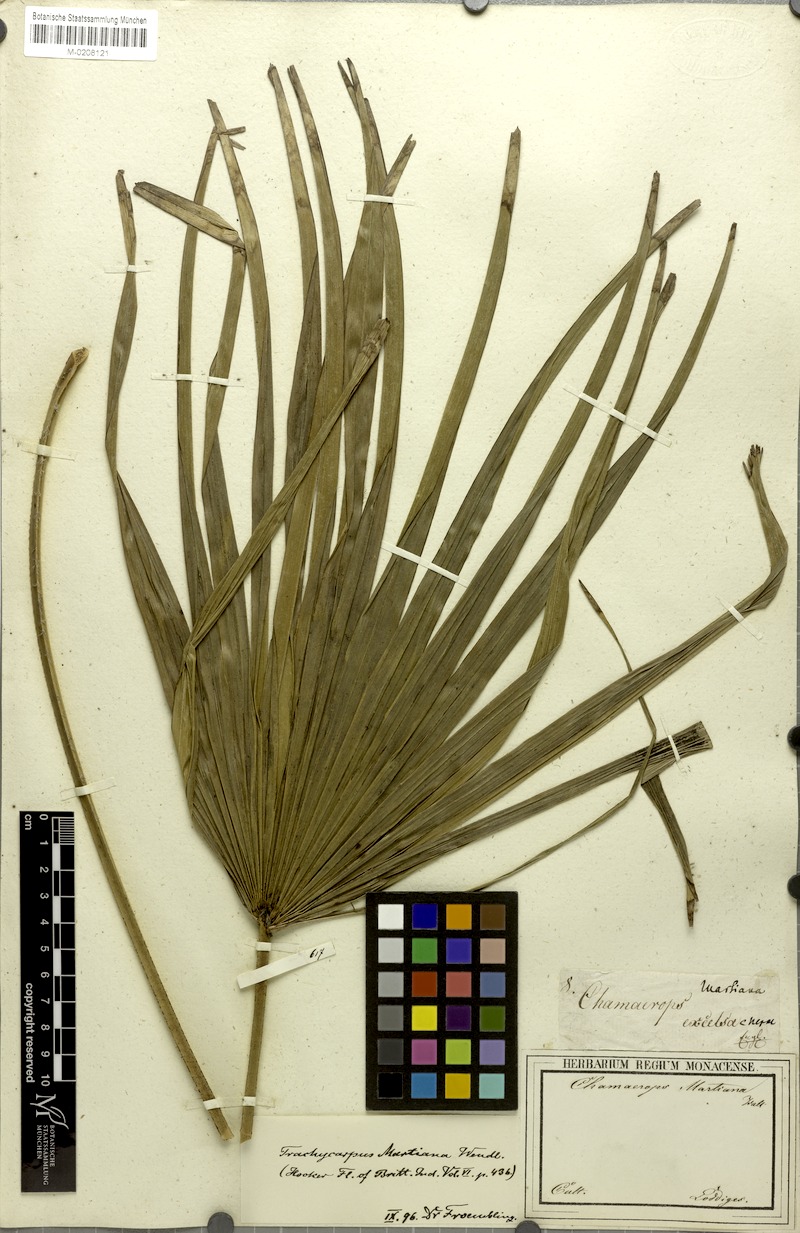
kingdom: Plantae
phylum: Tracheophyta
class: Liliopsida
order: Arecales
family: Arecaceae
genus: Trachycarpus
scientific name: Trachycarpus martianus
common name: Martius's windmill palm
